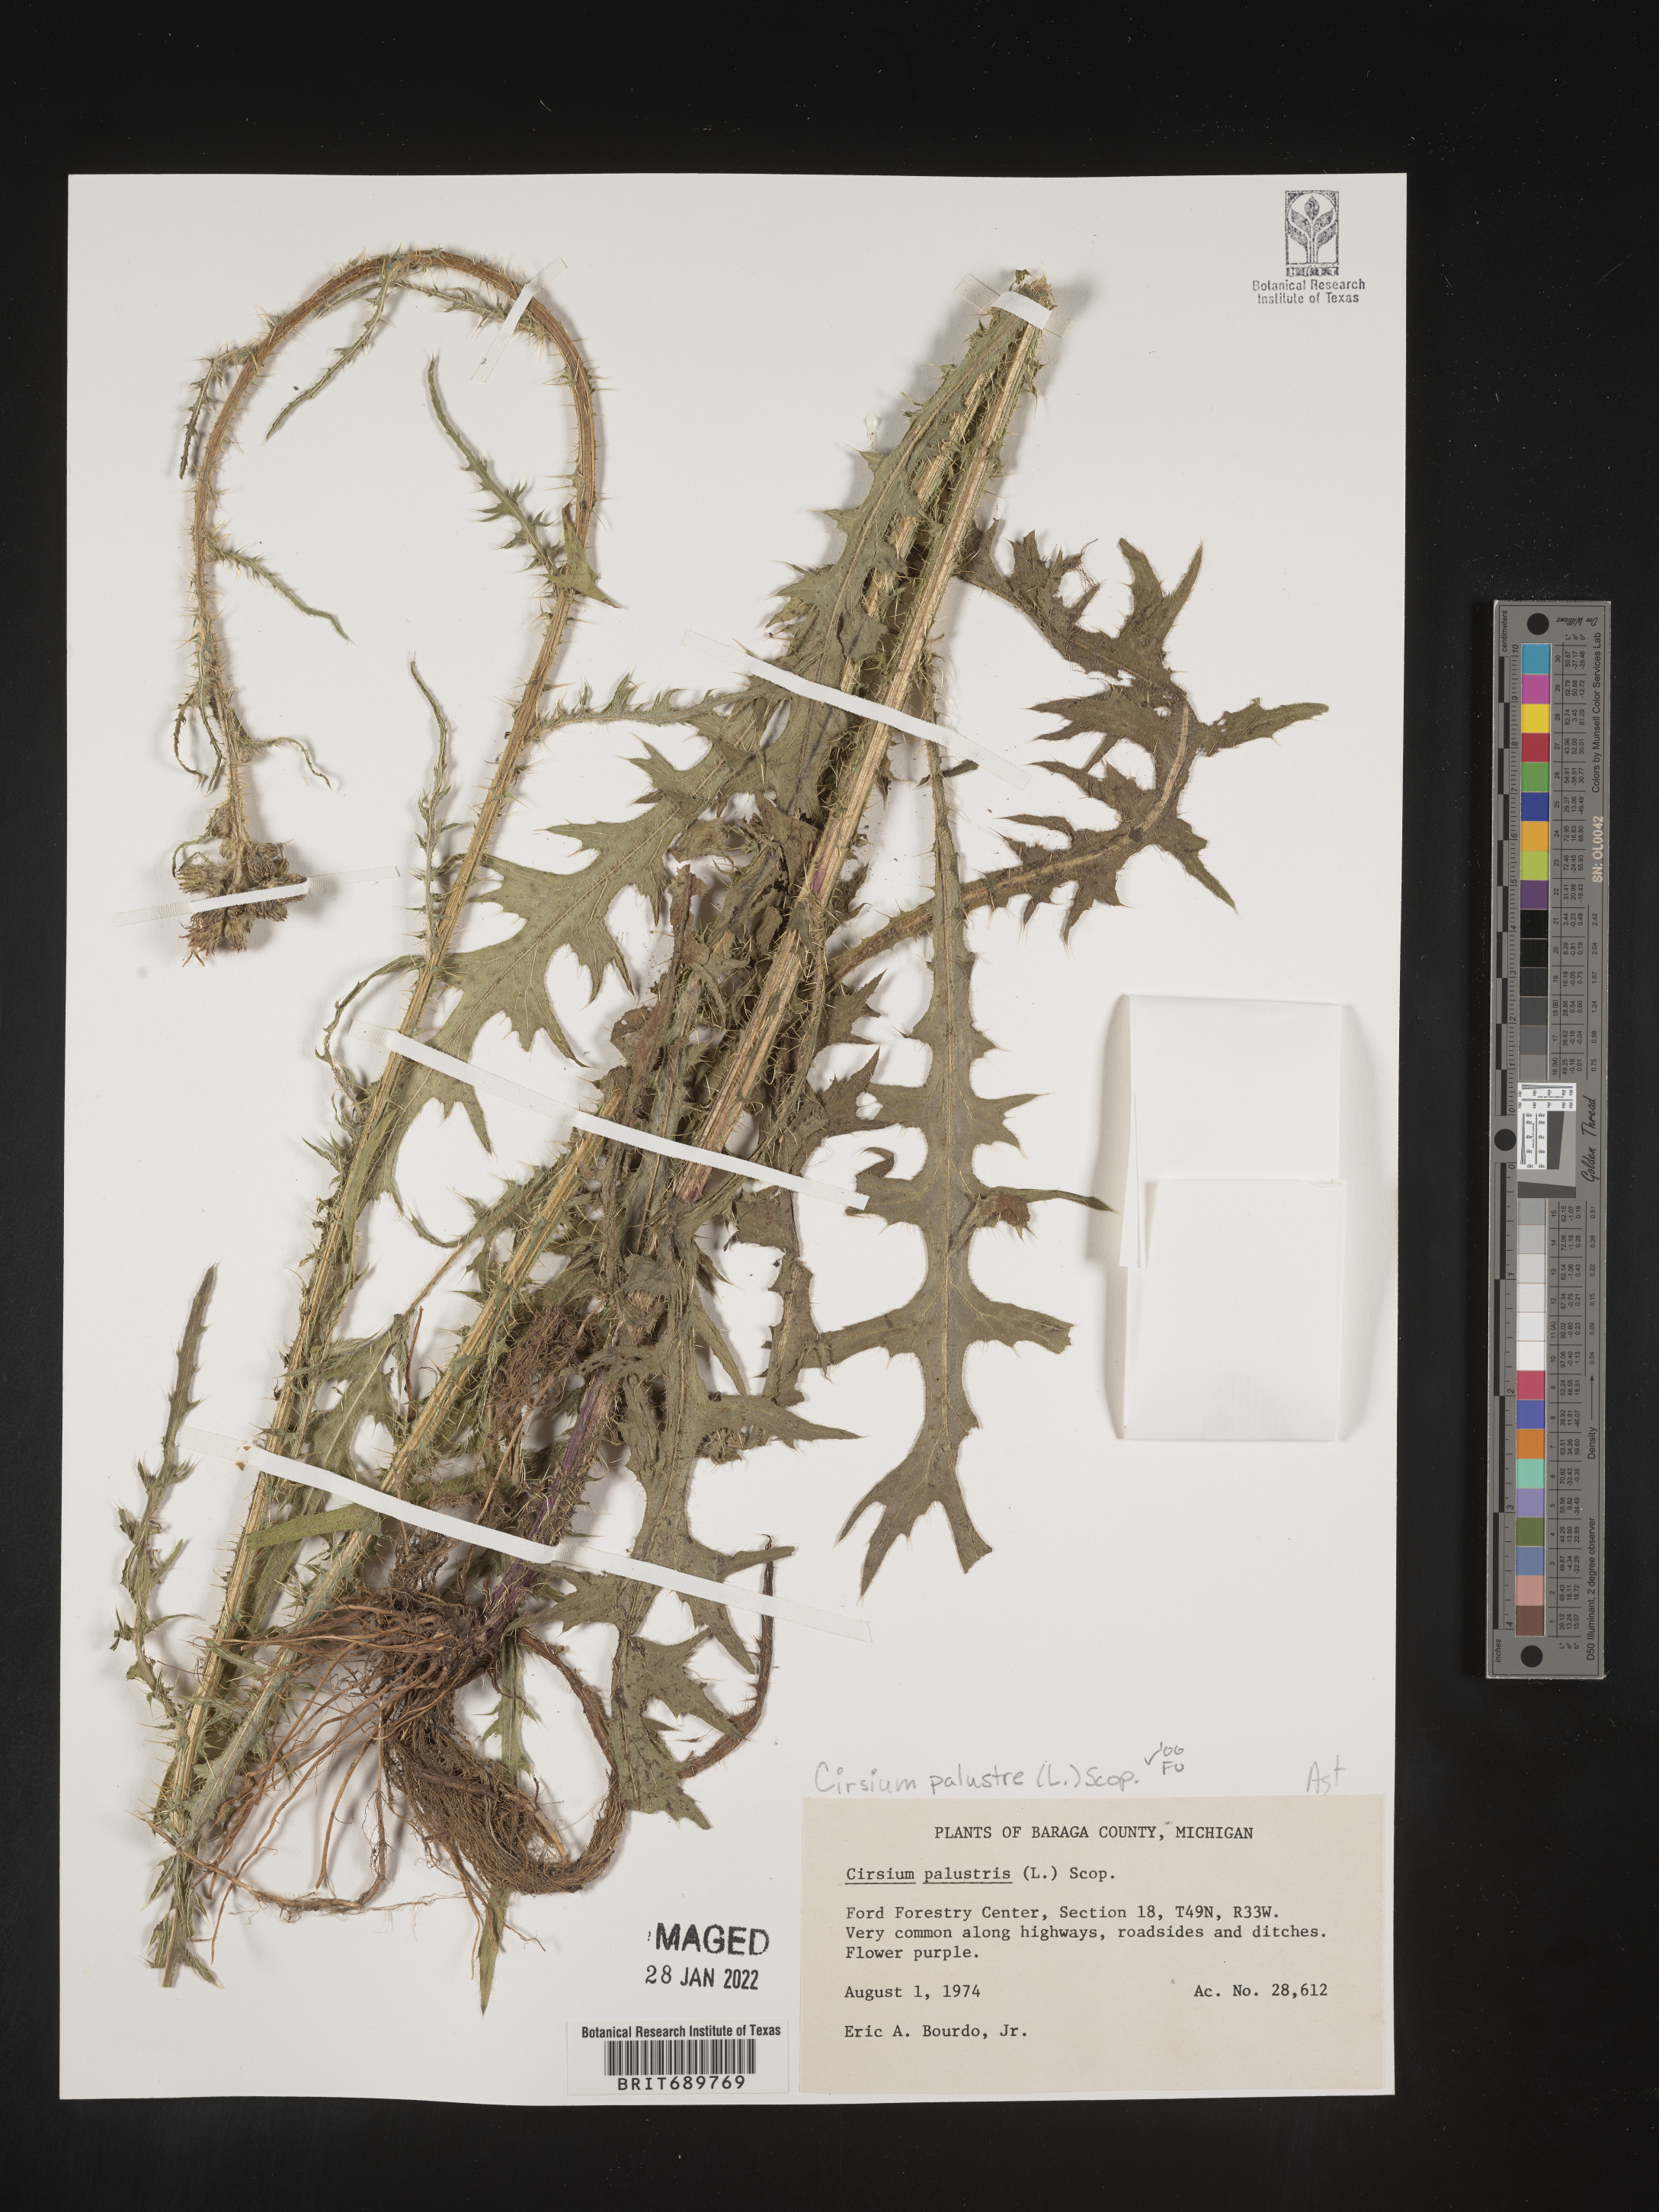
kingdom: Plantae
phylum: Tracheophyta
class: Magnoliopsida
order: Asterales
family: Asteraceae
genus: Cirsium
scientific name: Cirsium palustre
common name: Marsh thistle
